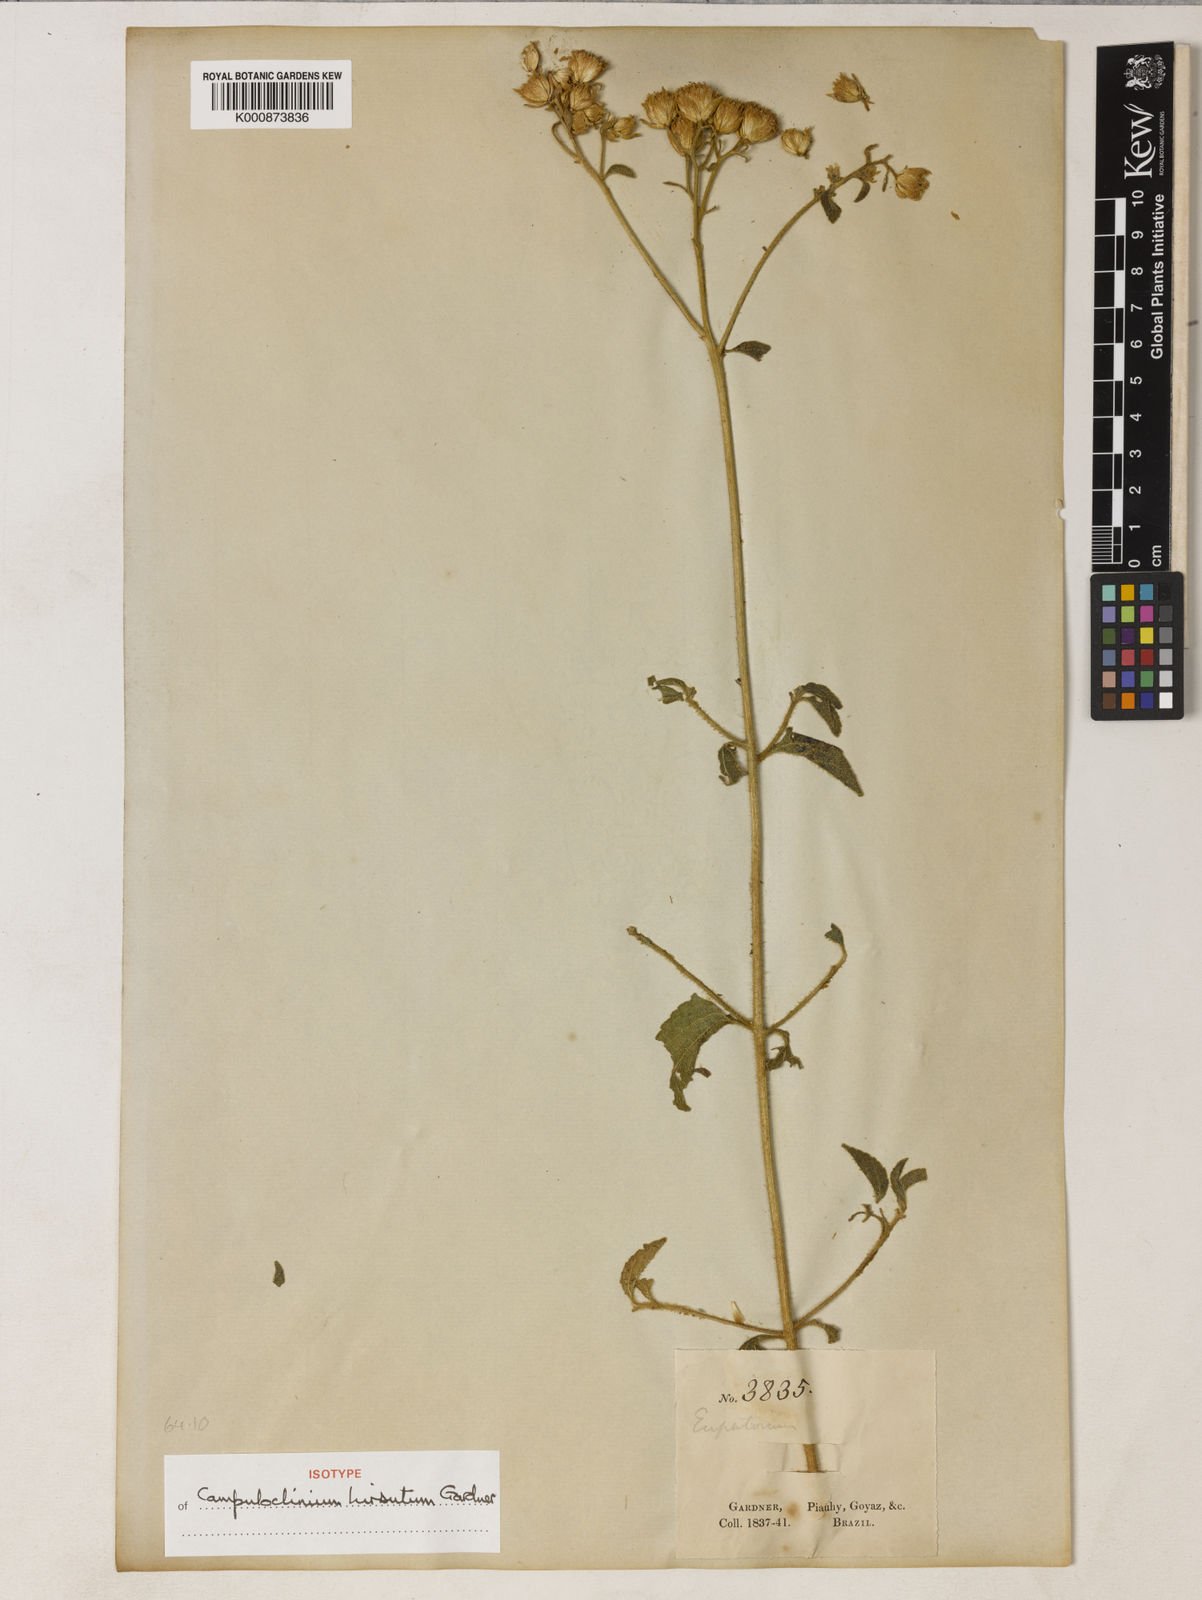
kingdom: Plantae
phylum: Tracheophyta
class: Magnoliopsida
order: Asterales
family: Asteraceae
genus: Campuloclinium
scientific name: Campuloclinium hirsutum
